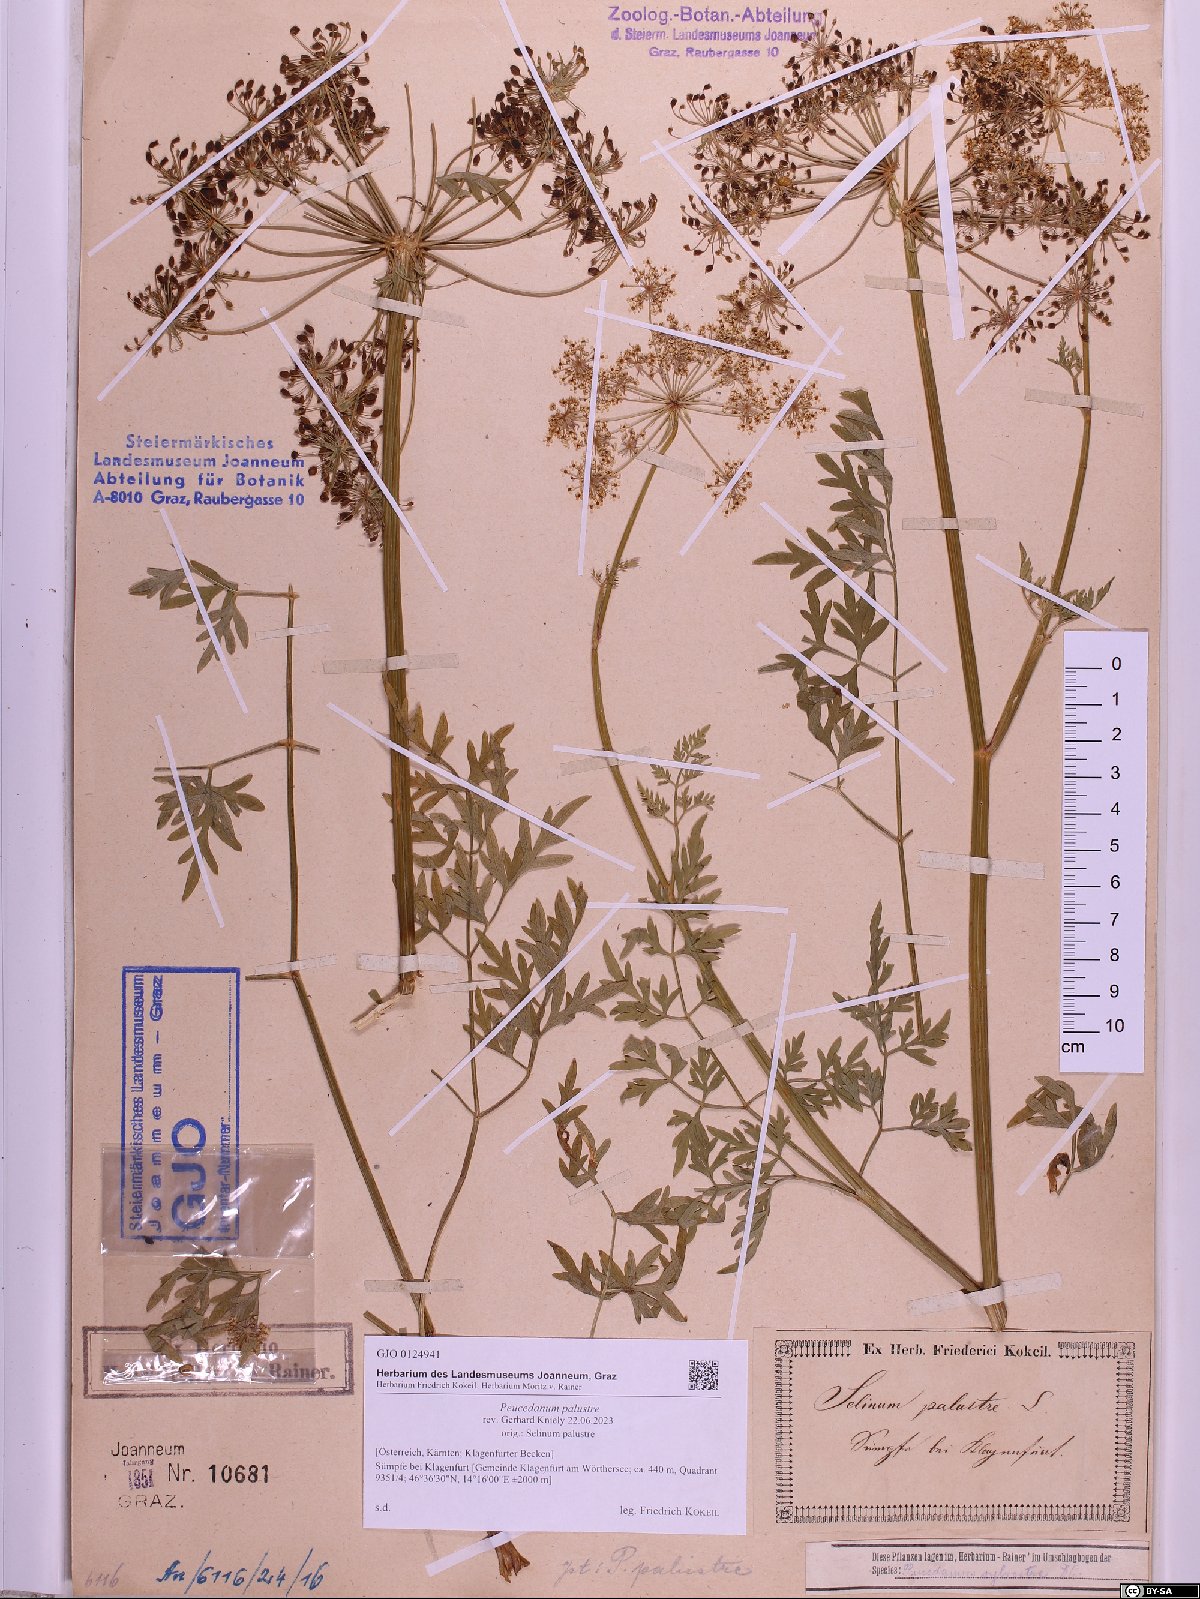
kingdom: Plantae
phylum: Tracheophyta
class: Magnoliopsida
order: Apiales
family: Apiaceae
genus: Thysselinum
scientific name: Thysselinum palustre
